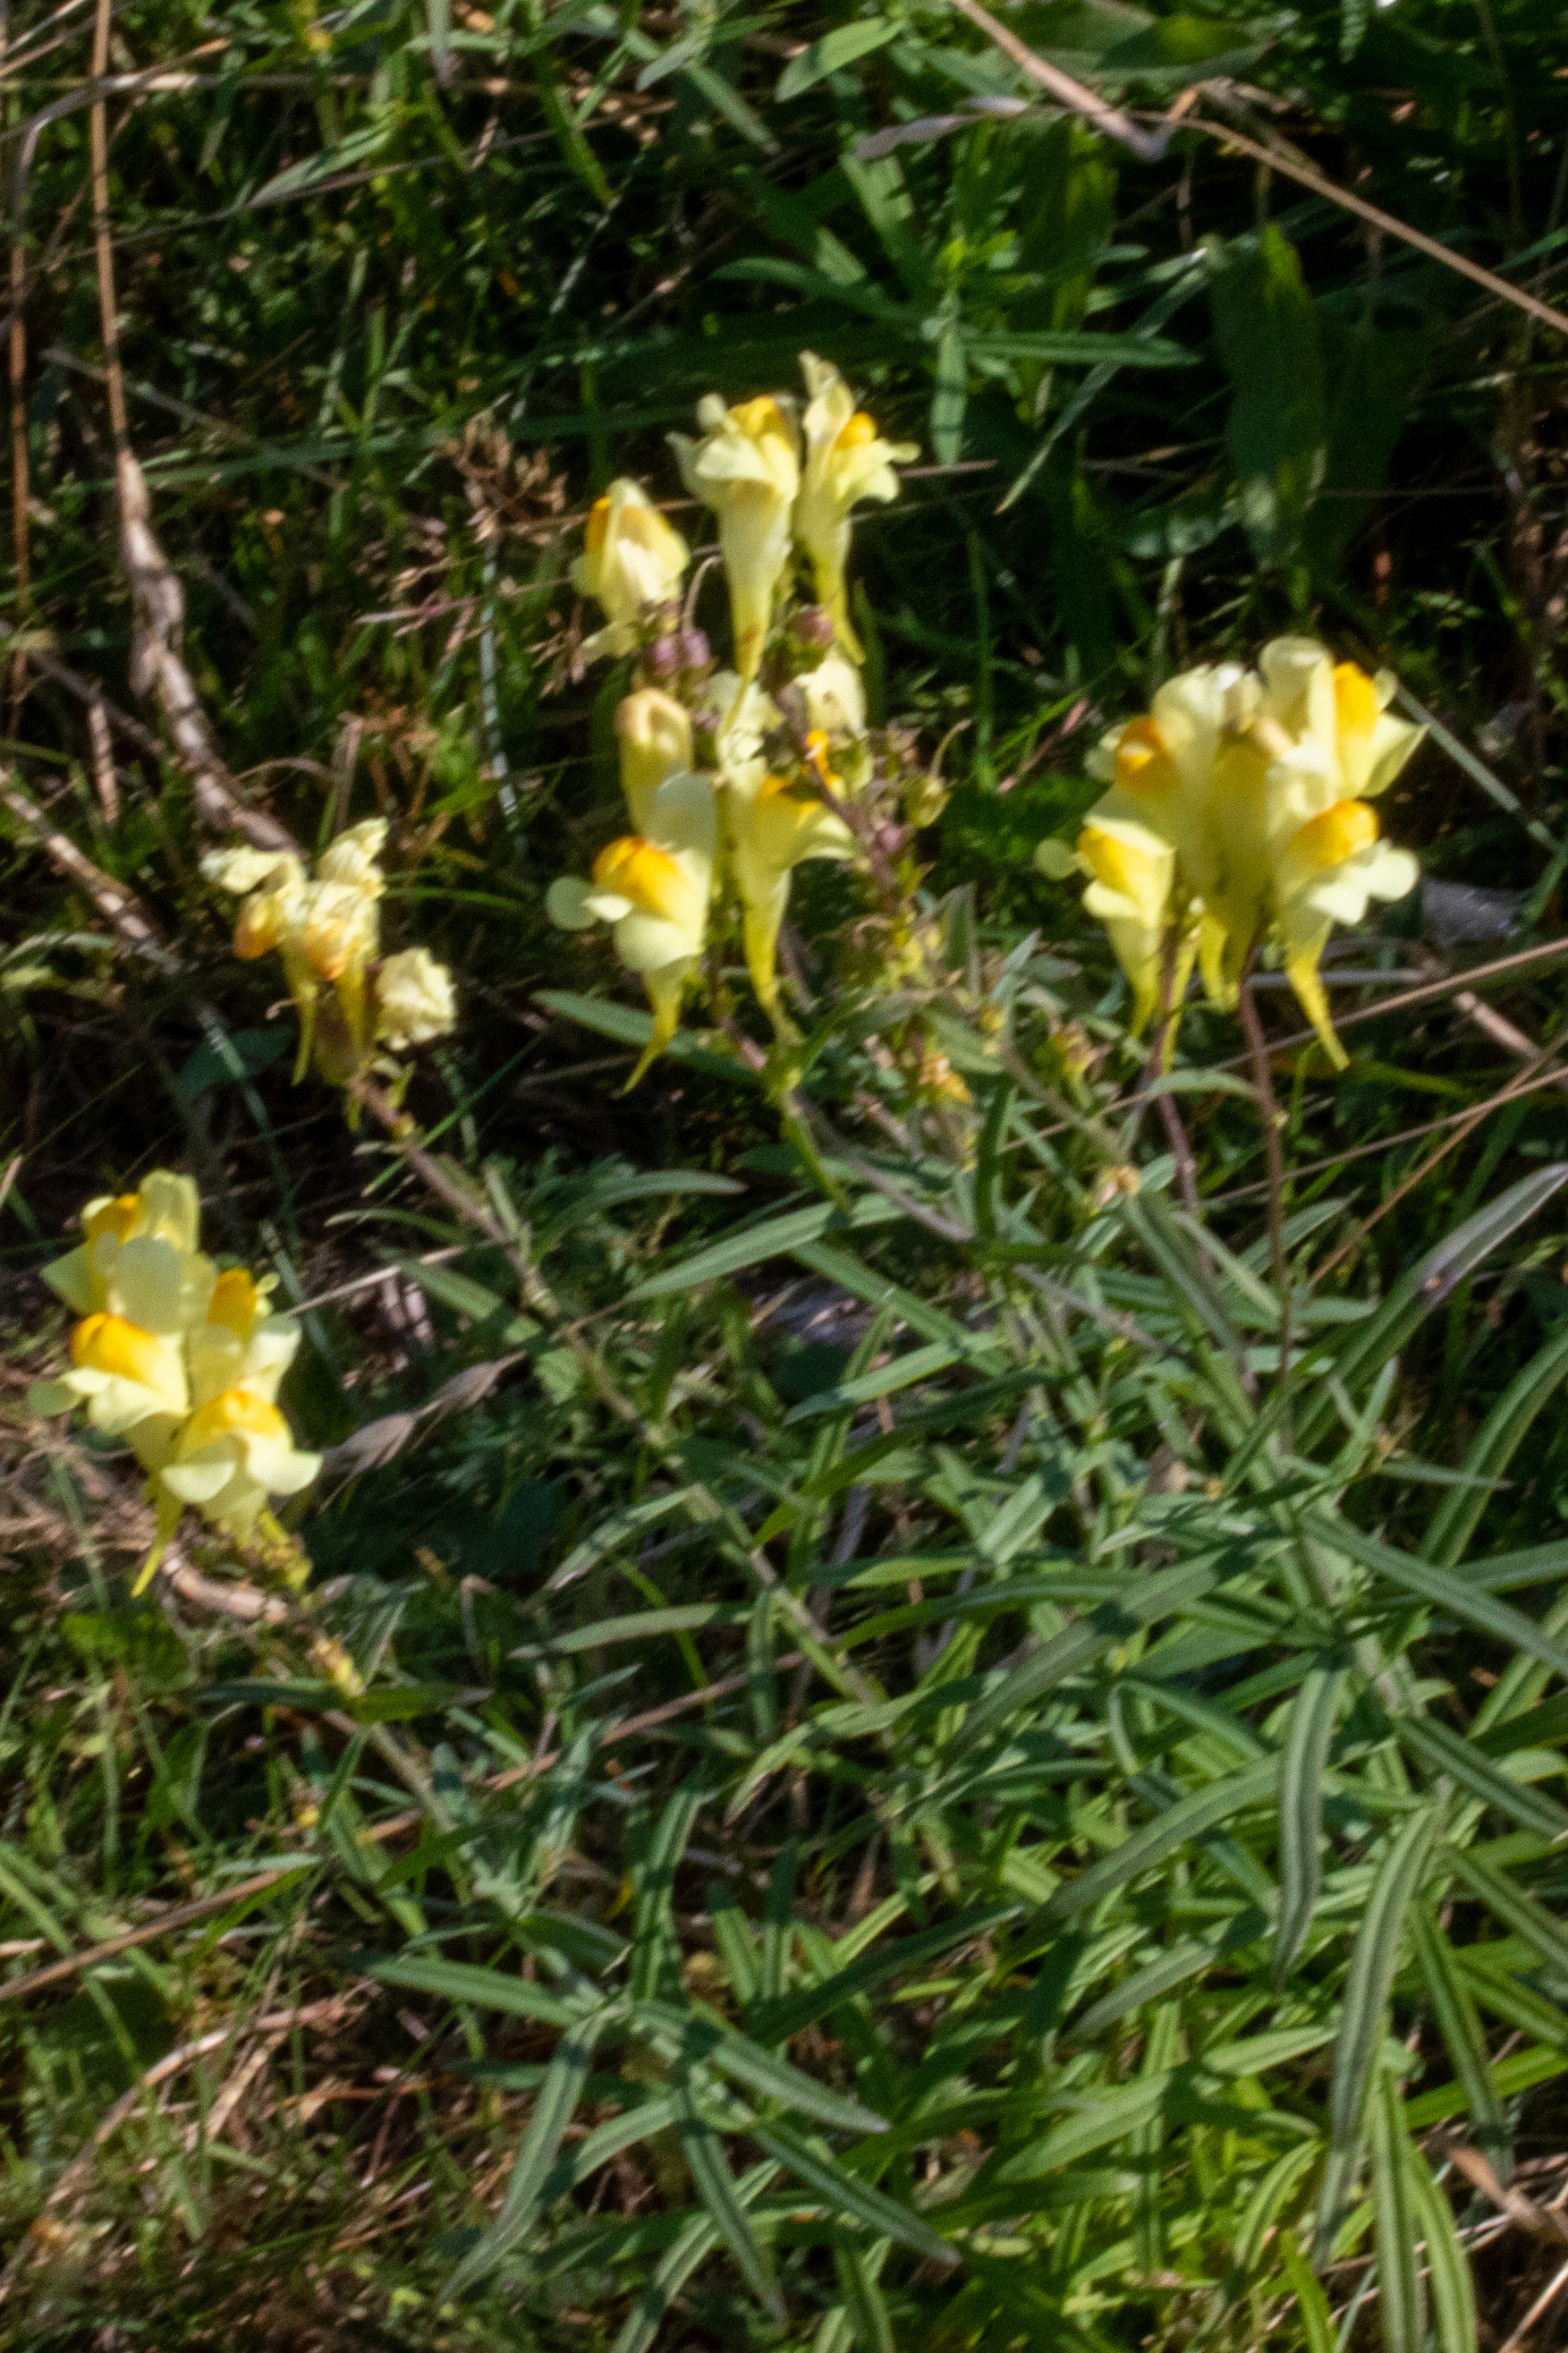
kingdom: Plantae
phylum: Tracheophyta
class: Magnoliopsida
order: Lamiales
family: Plantaginaceae
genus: Linaria
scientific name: Linaria vulgaris
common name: Almindelig torskemund
